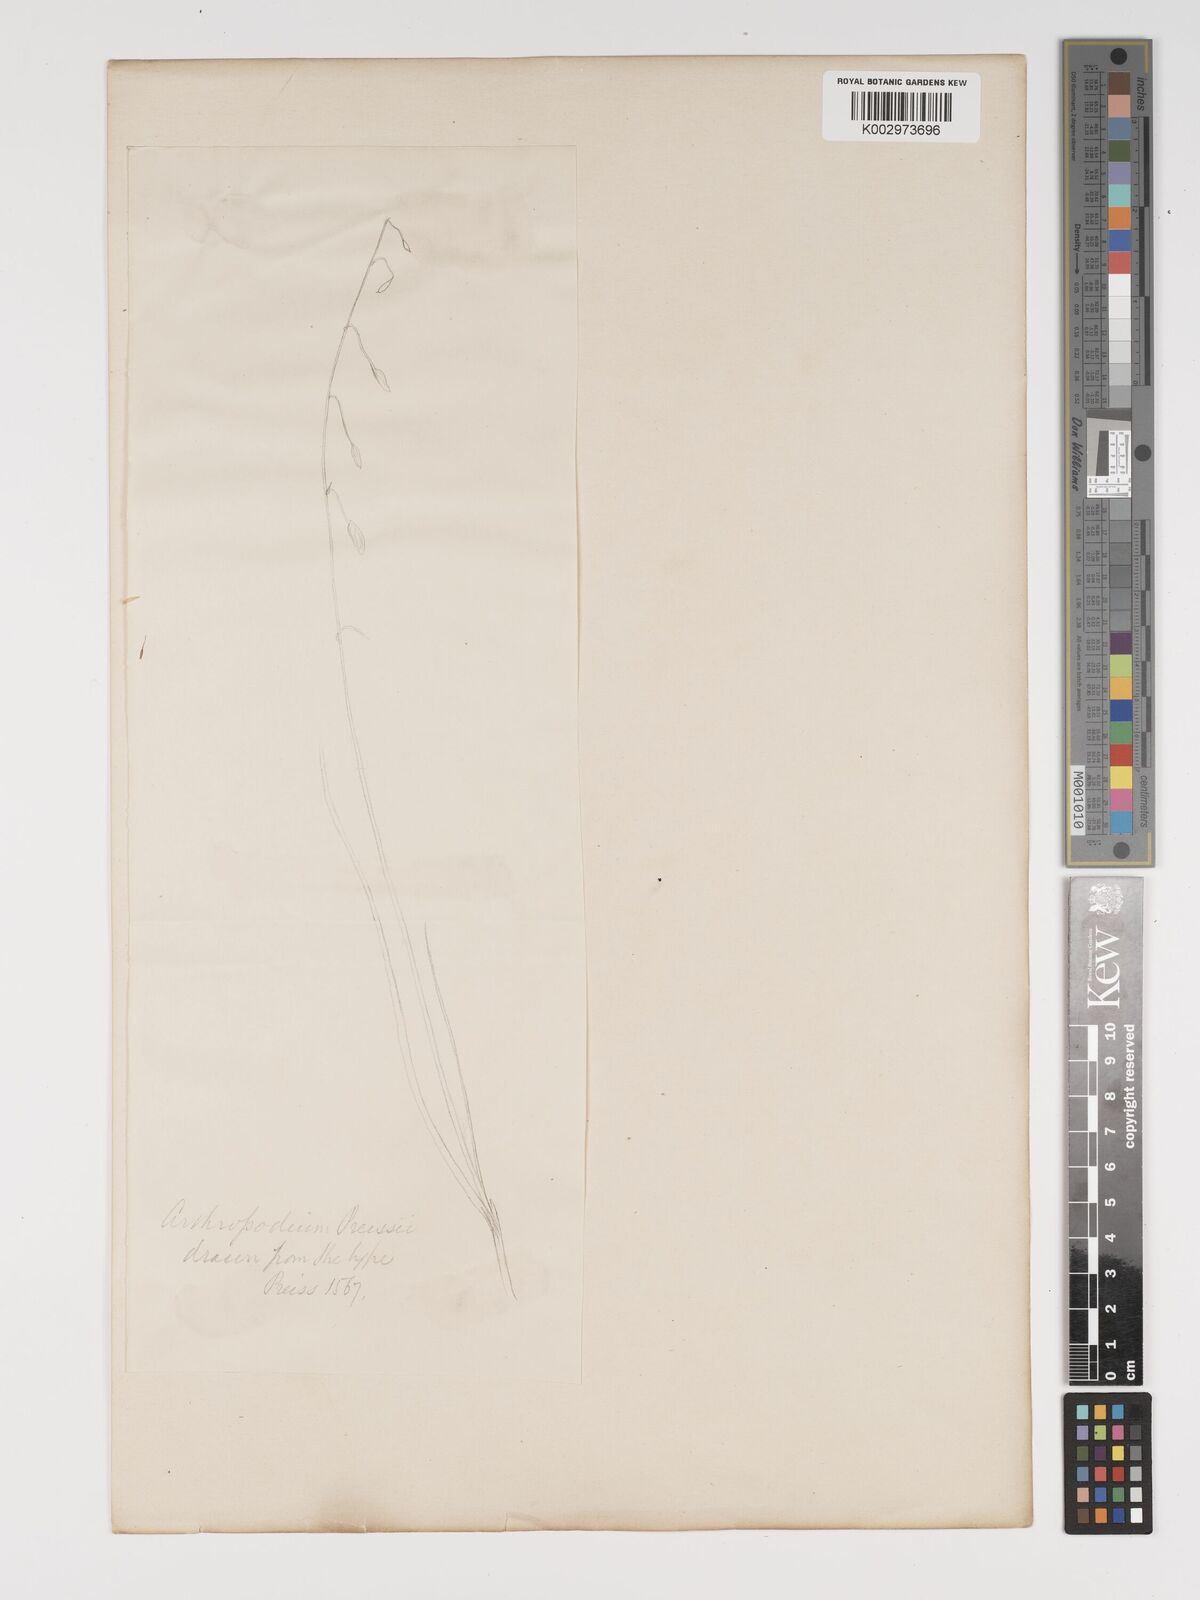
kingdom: Plantae
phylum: Tracheophyta
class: Liliopsida
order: Asparagales
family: Asparagaceae
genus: Dichopogon
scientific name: Dichopogon preissii
